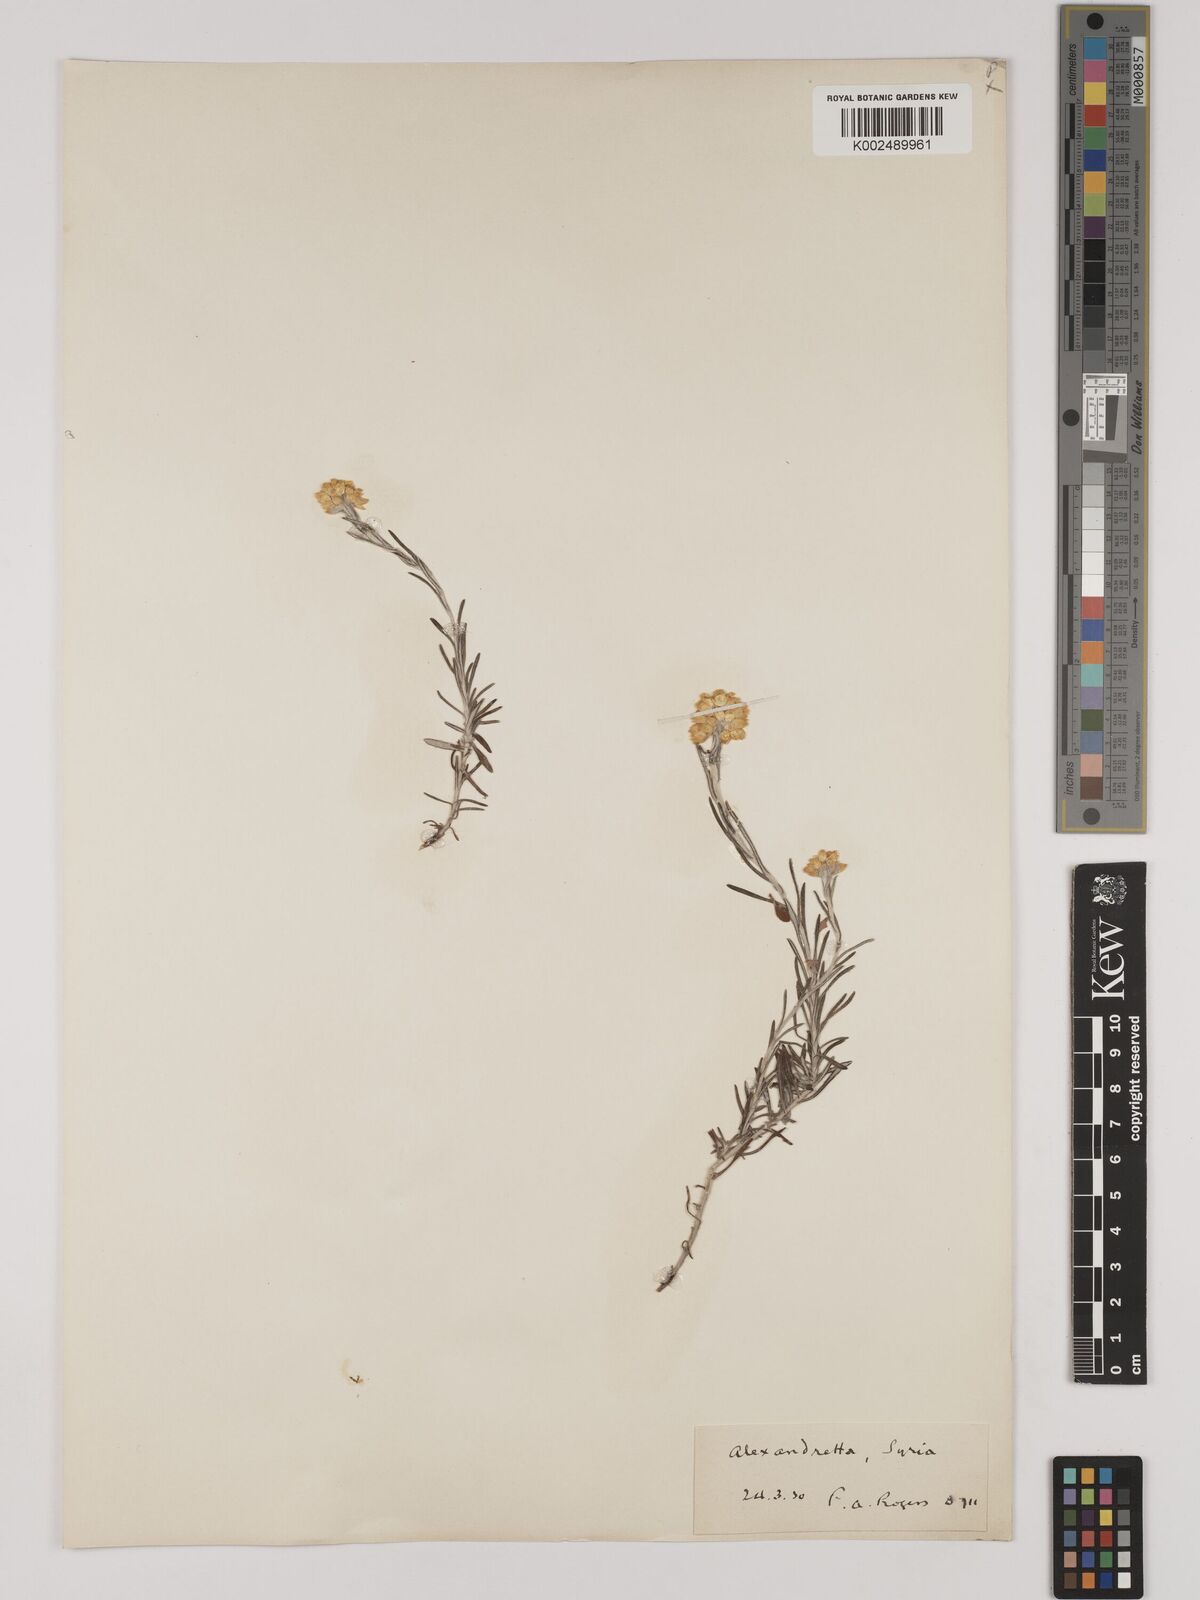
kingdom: Plantae
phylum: Tracheophyta
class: Magnoliopsida
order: Asterales
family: Asteraceae
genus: Helichrysum
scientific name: Helichrysum stoechas
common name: Goldilocks
